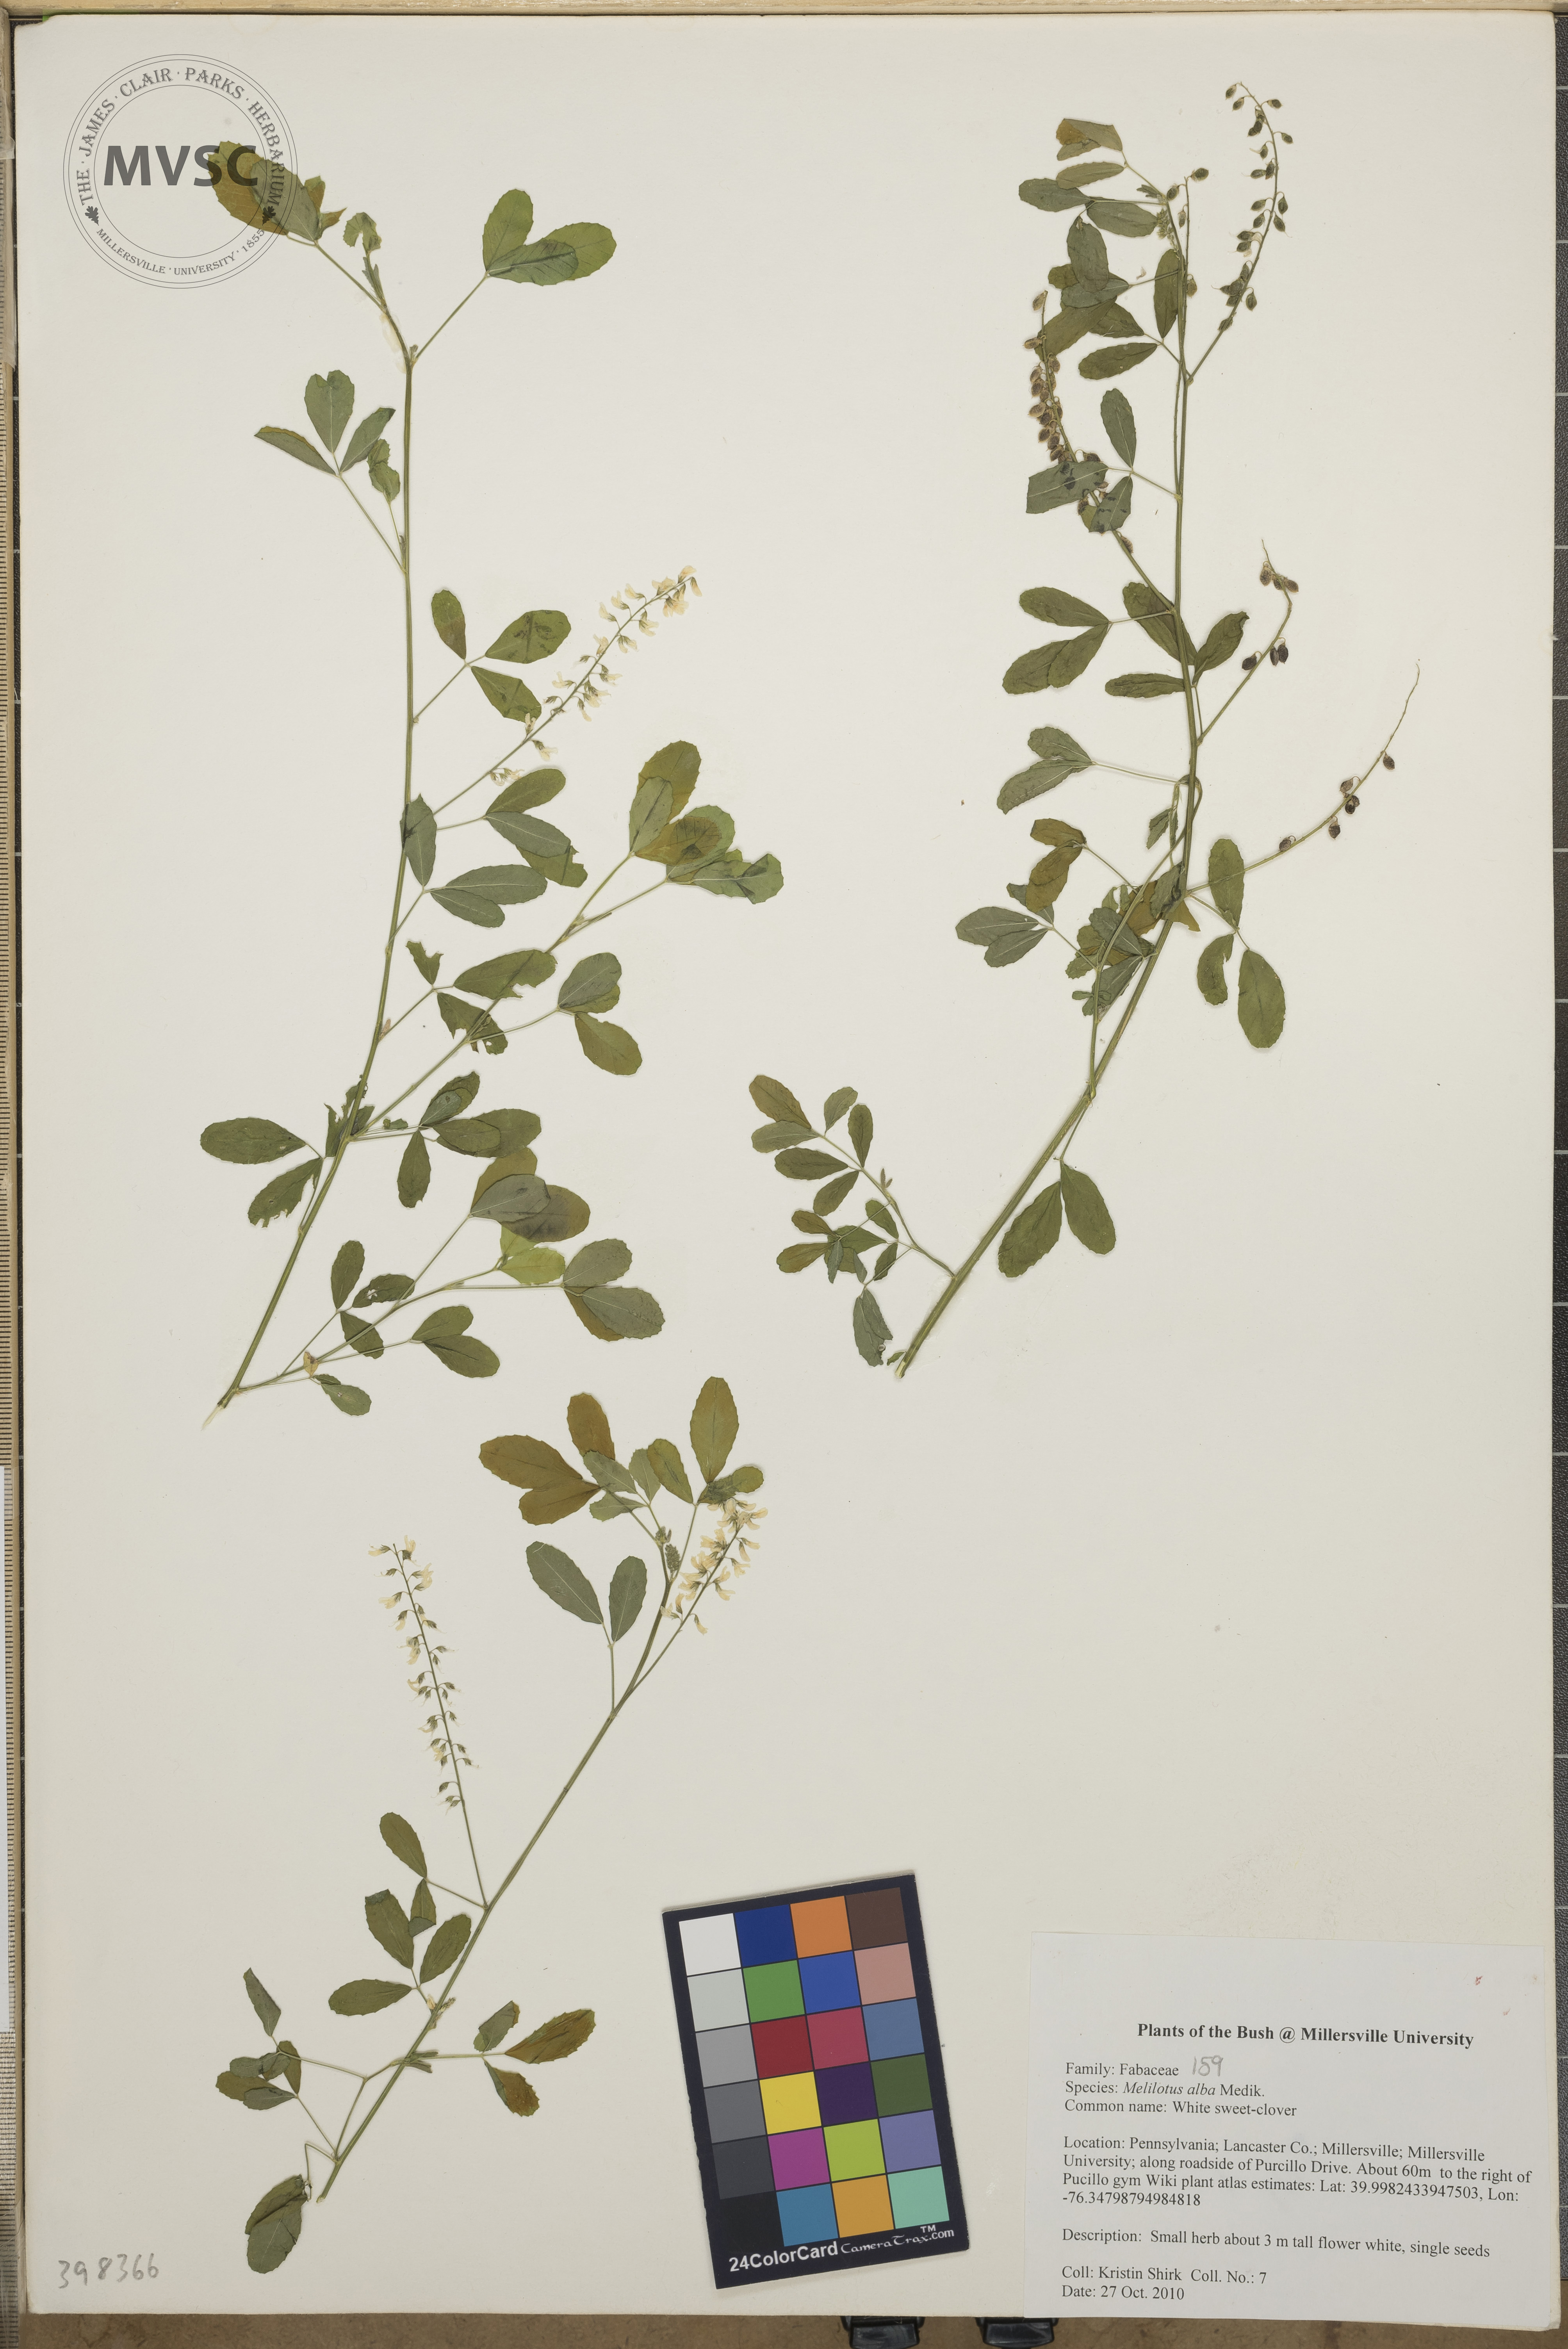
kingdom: Plantae
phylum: Tracheophyta
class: Magnoliopsida
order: Fabales
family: Fabaceae
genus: Melilotus
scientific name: Melilotus albus
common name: Yellow sweet-clover
